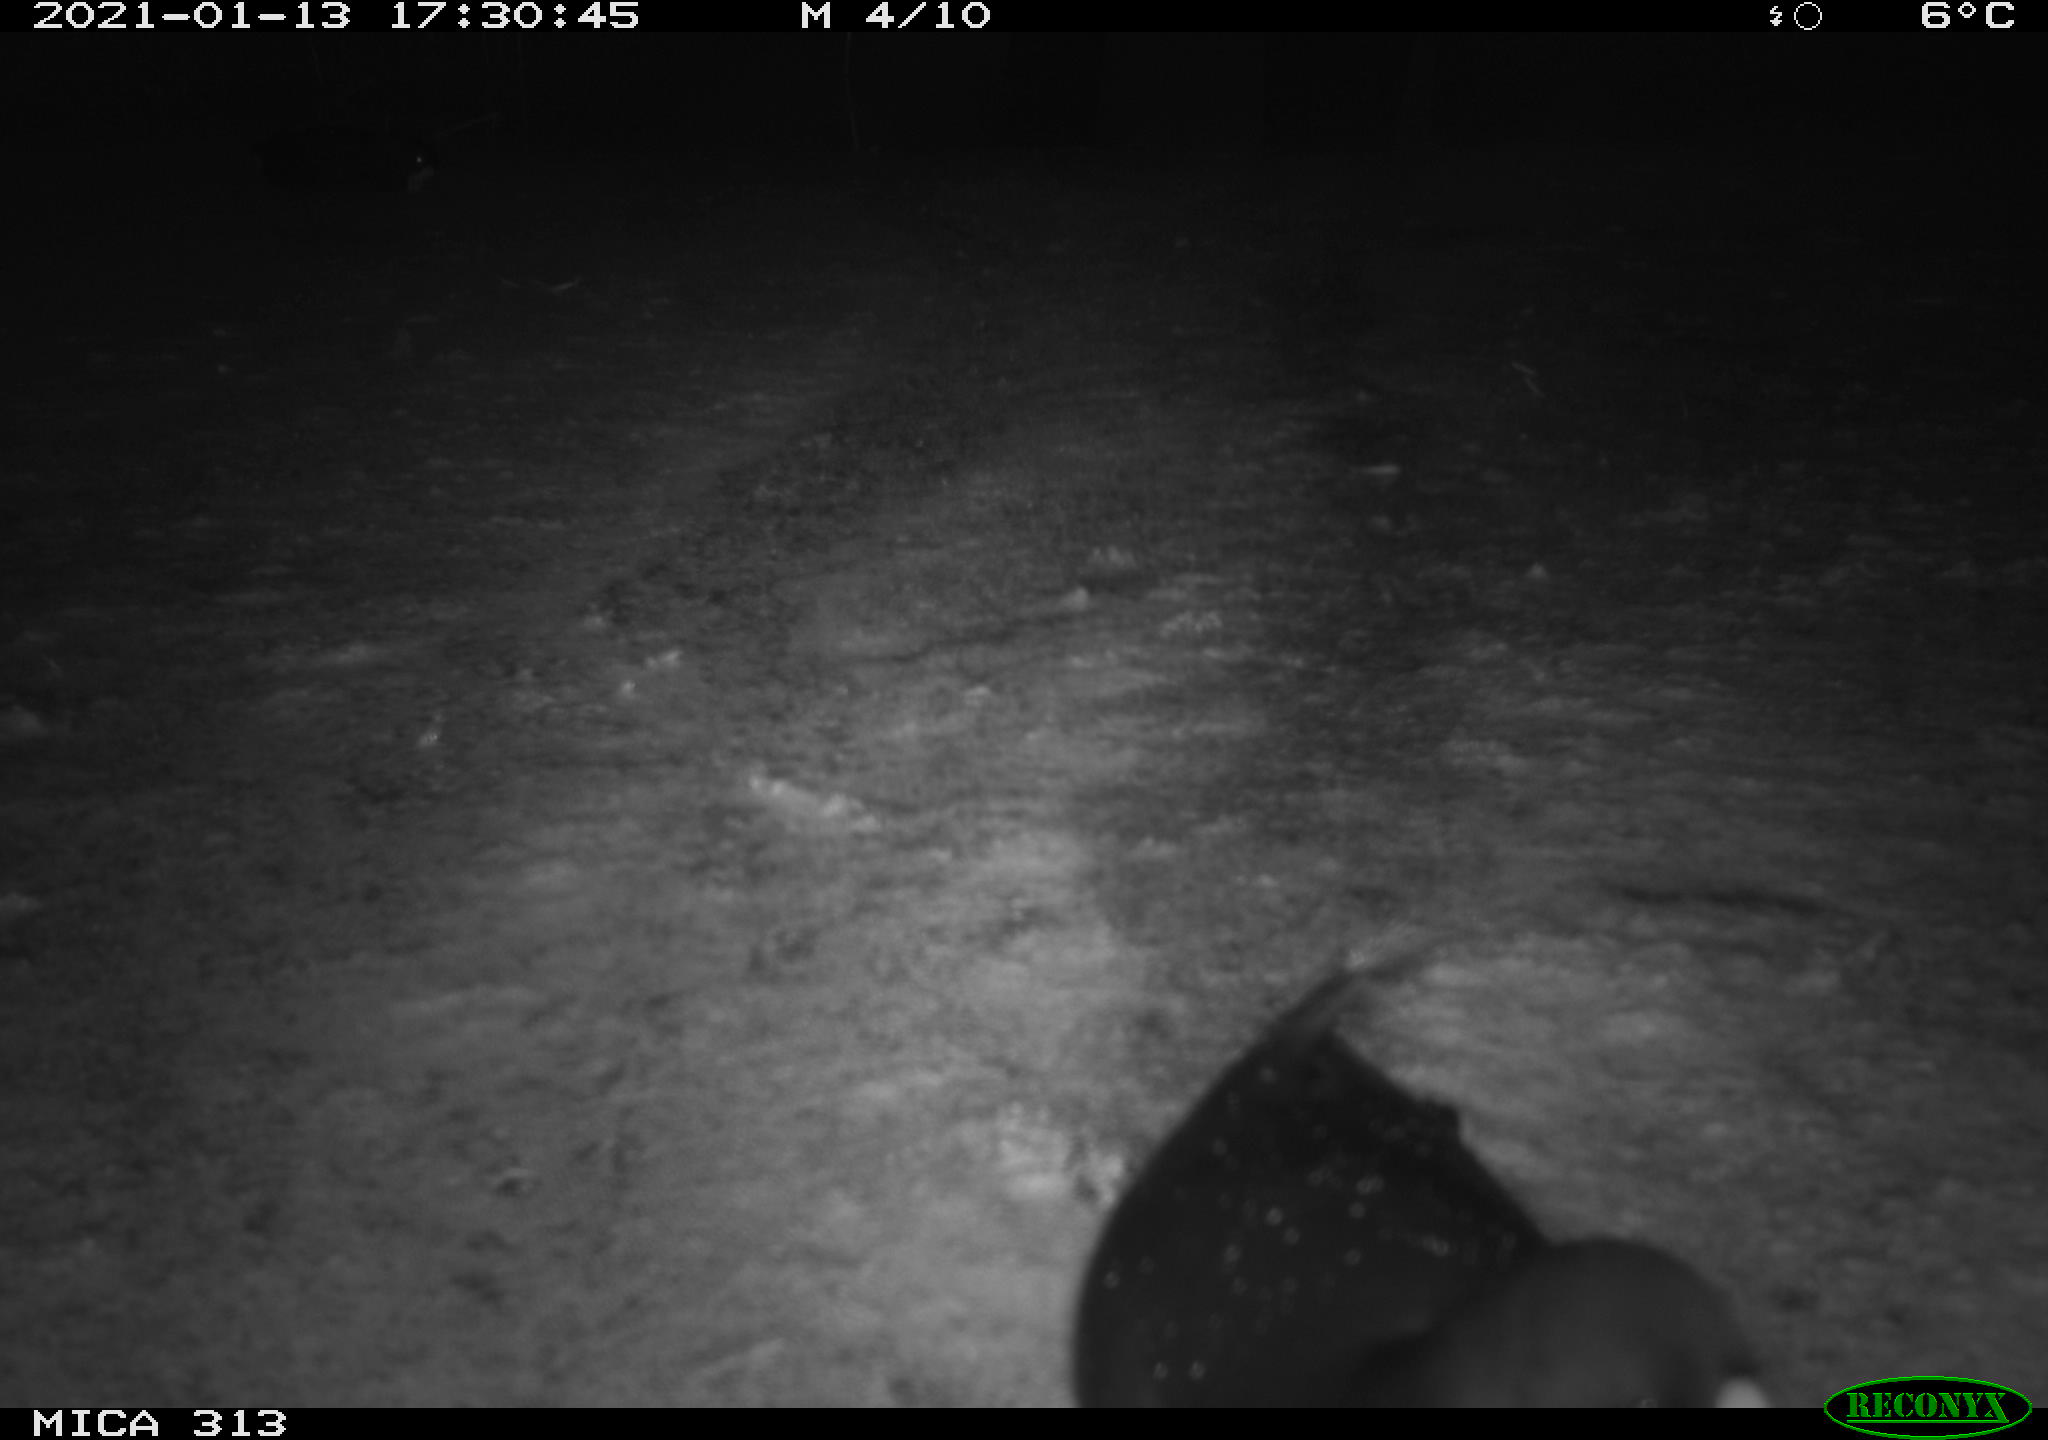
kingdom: Animalia
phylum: Chordata
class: Aves
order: Gruiformes
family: Rallidae
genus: Fulica
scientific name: Fulica atra
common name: Eurasian coot
